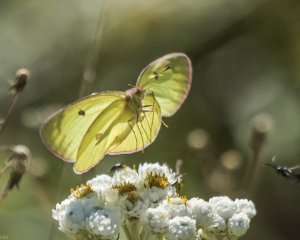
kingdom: Animalia
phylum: Arthropoda
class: Insecta
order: Lepidoptera
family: Pieridae
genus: Colias
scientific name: Colias interior
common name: Pink-edged Sulphur
